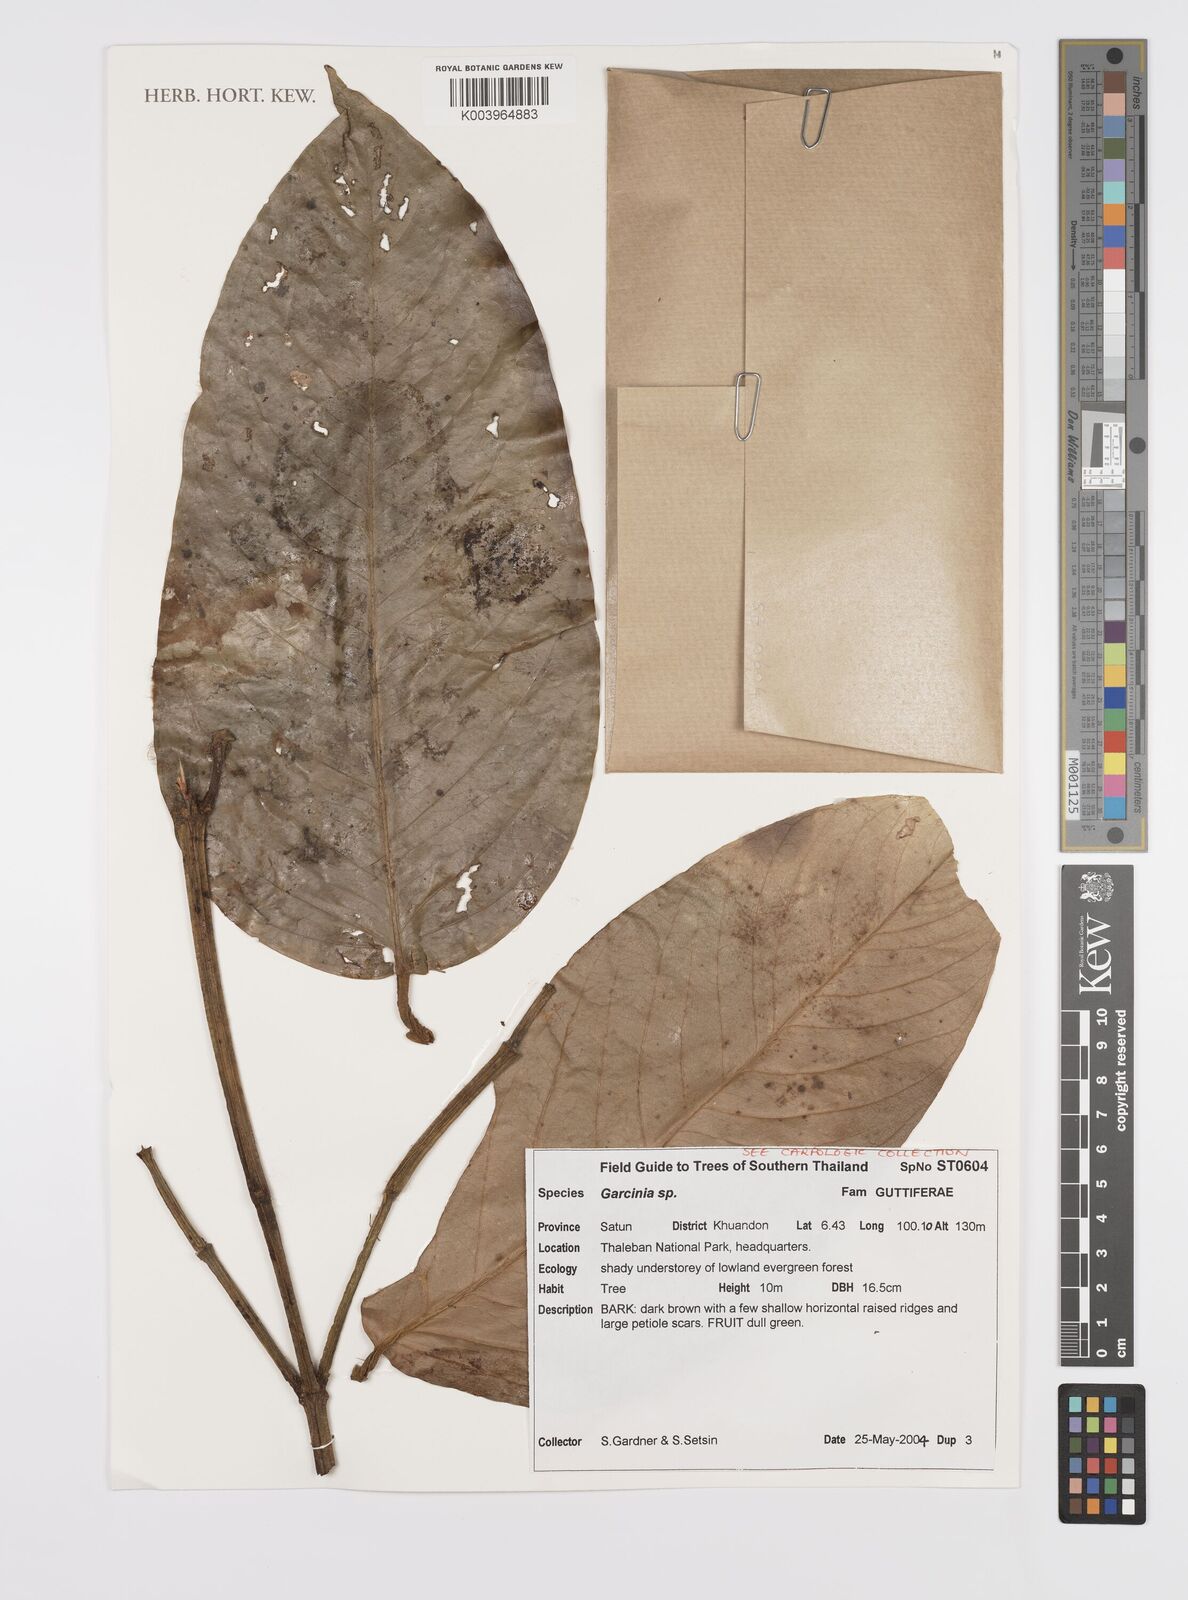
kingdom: Plantae
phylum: Tracheophyta
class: Magnoliopsida
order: Malpighiales
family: Clusiaceae
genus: Garcinia
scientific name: Garcinia
